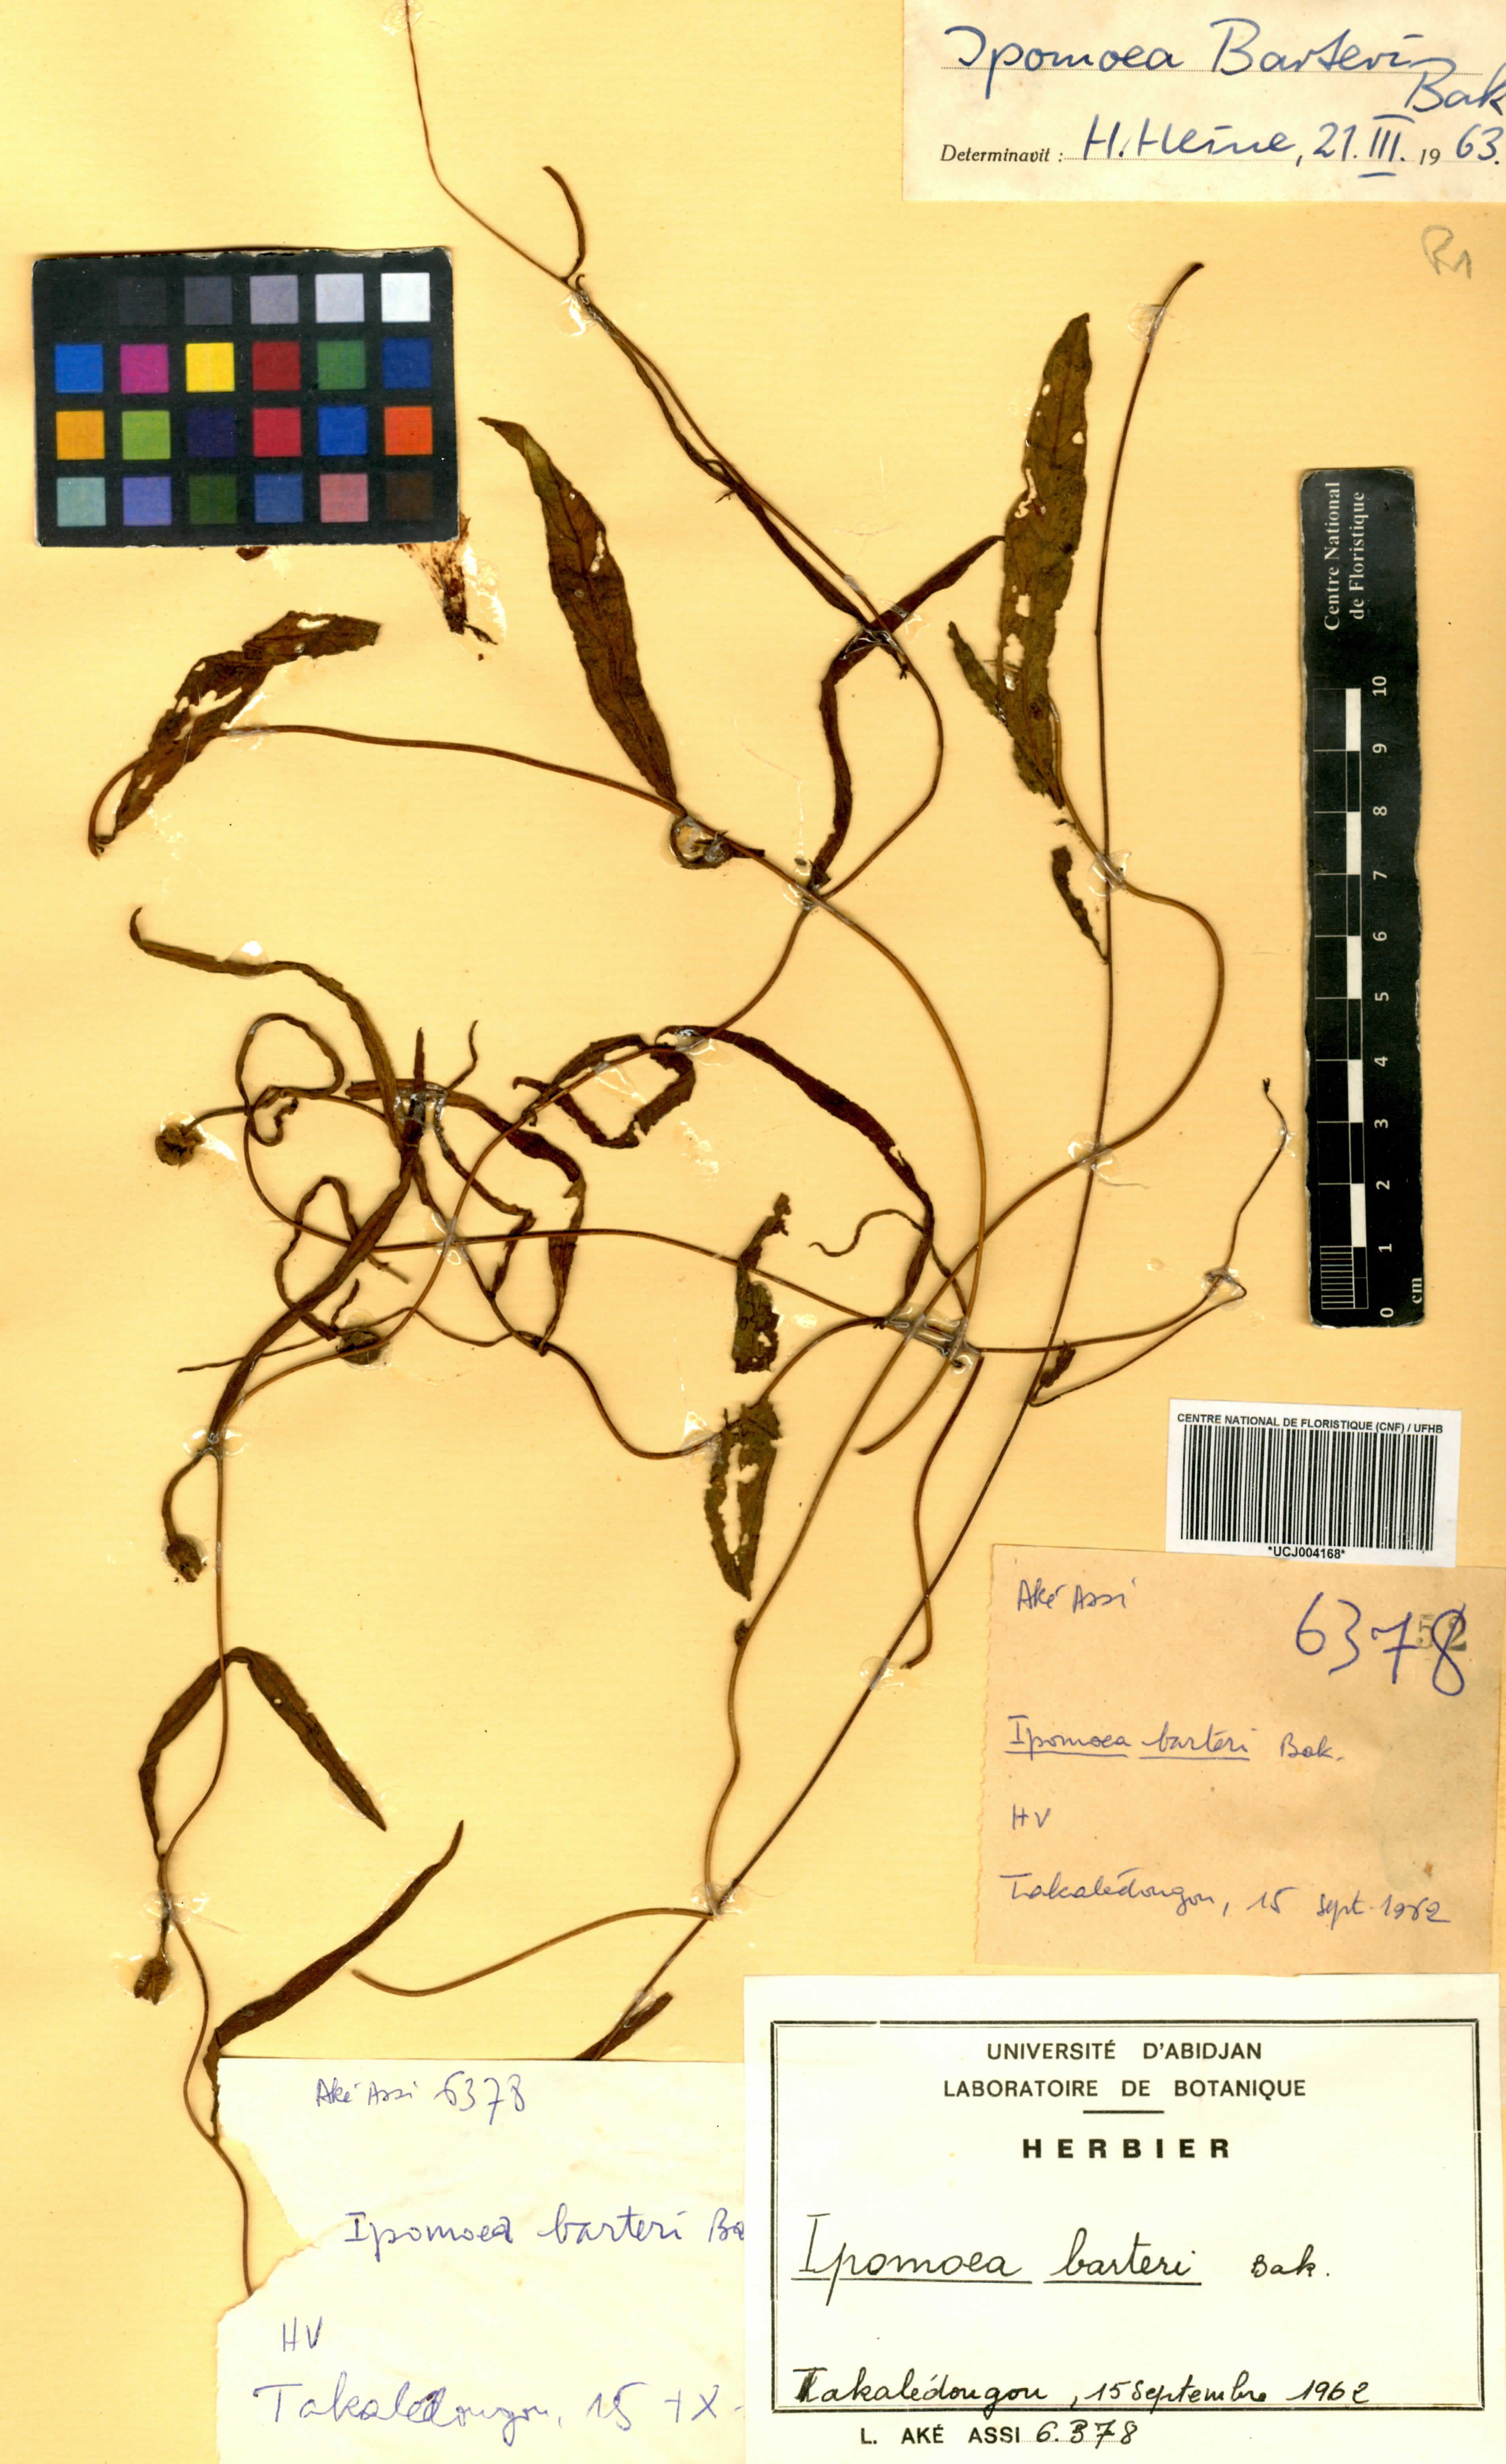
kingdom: Plantae
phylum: Tracheophyta
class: Magnoliopsida
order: Solanales
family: Convolvulaceae
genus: Ipomoea
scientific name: Ipomoea barteri
